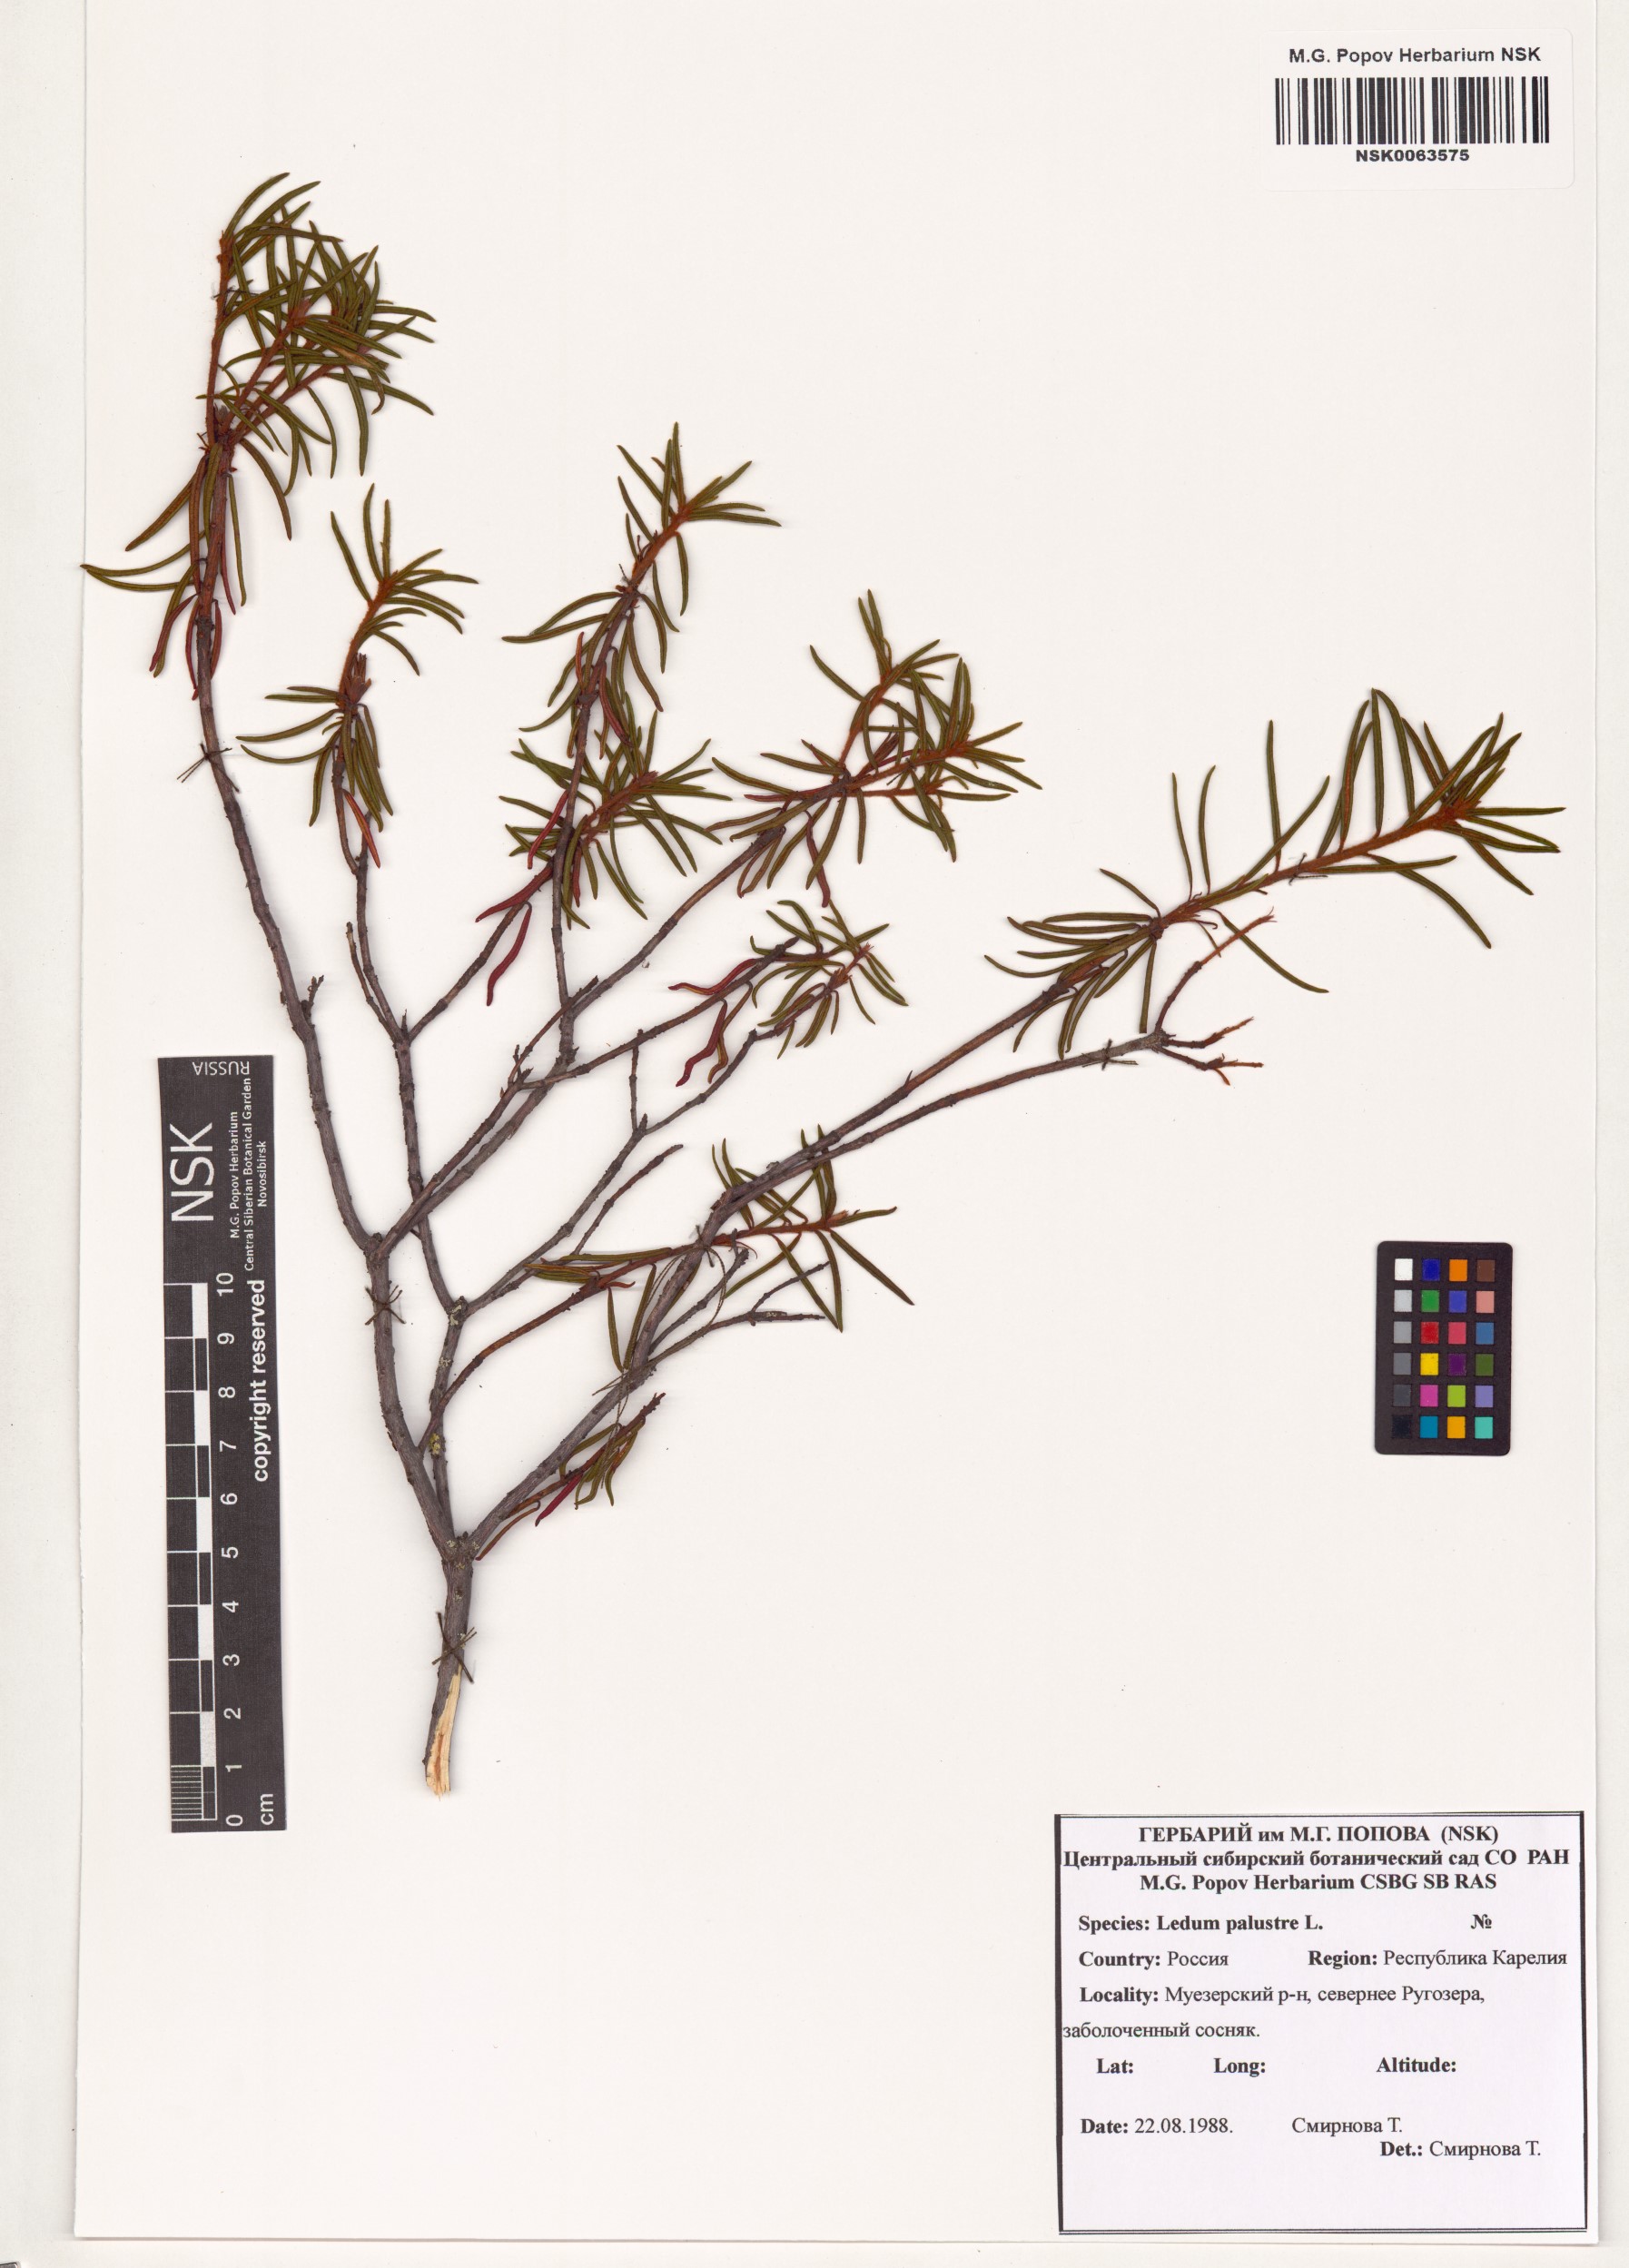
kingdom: Plantae
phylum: Tracheophyta
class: Magnoliopsida
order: Ericales
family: Ericaceae
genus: Rhododendron
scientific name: Rhododendron tomentosum
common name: Marsh labrador tea
